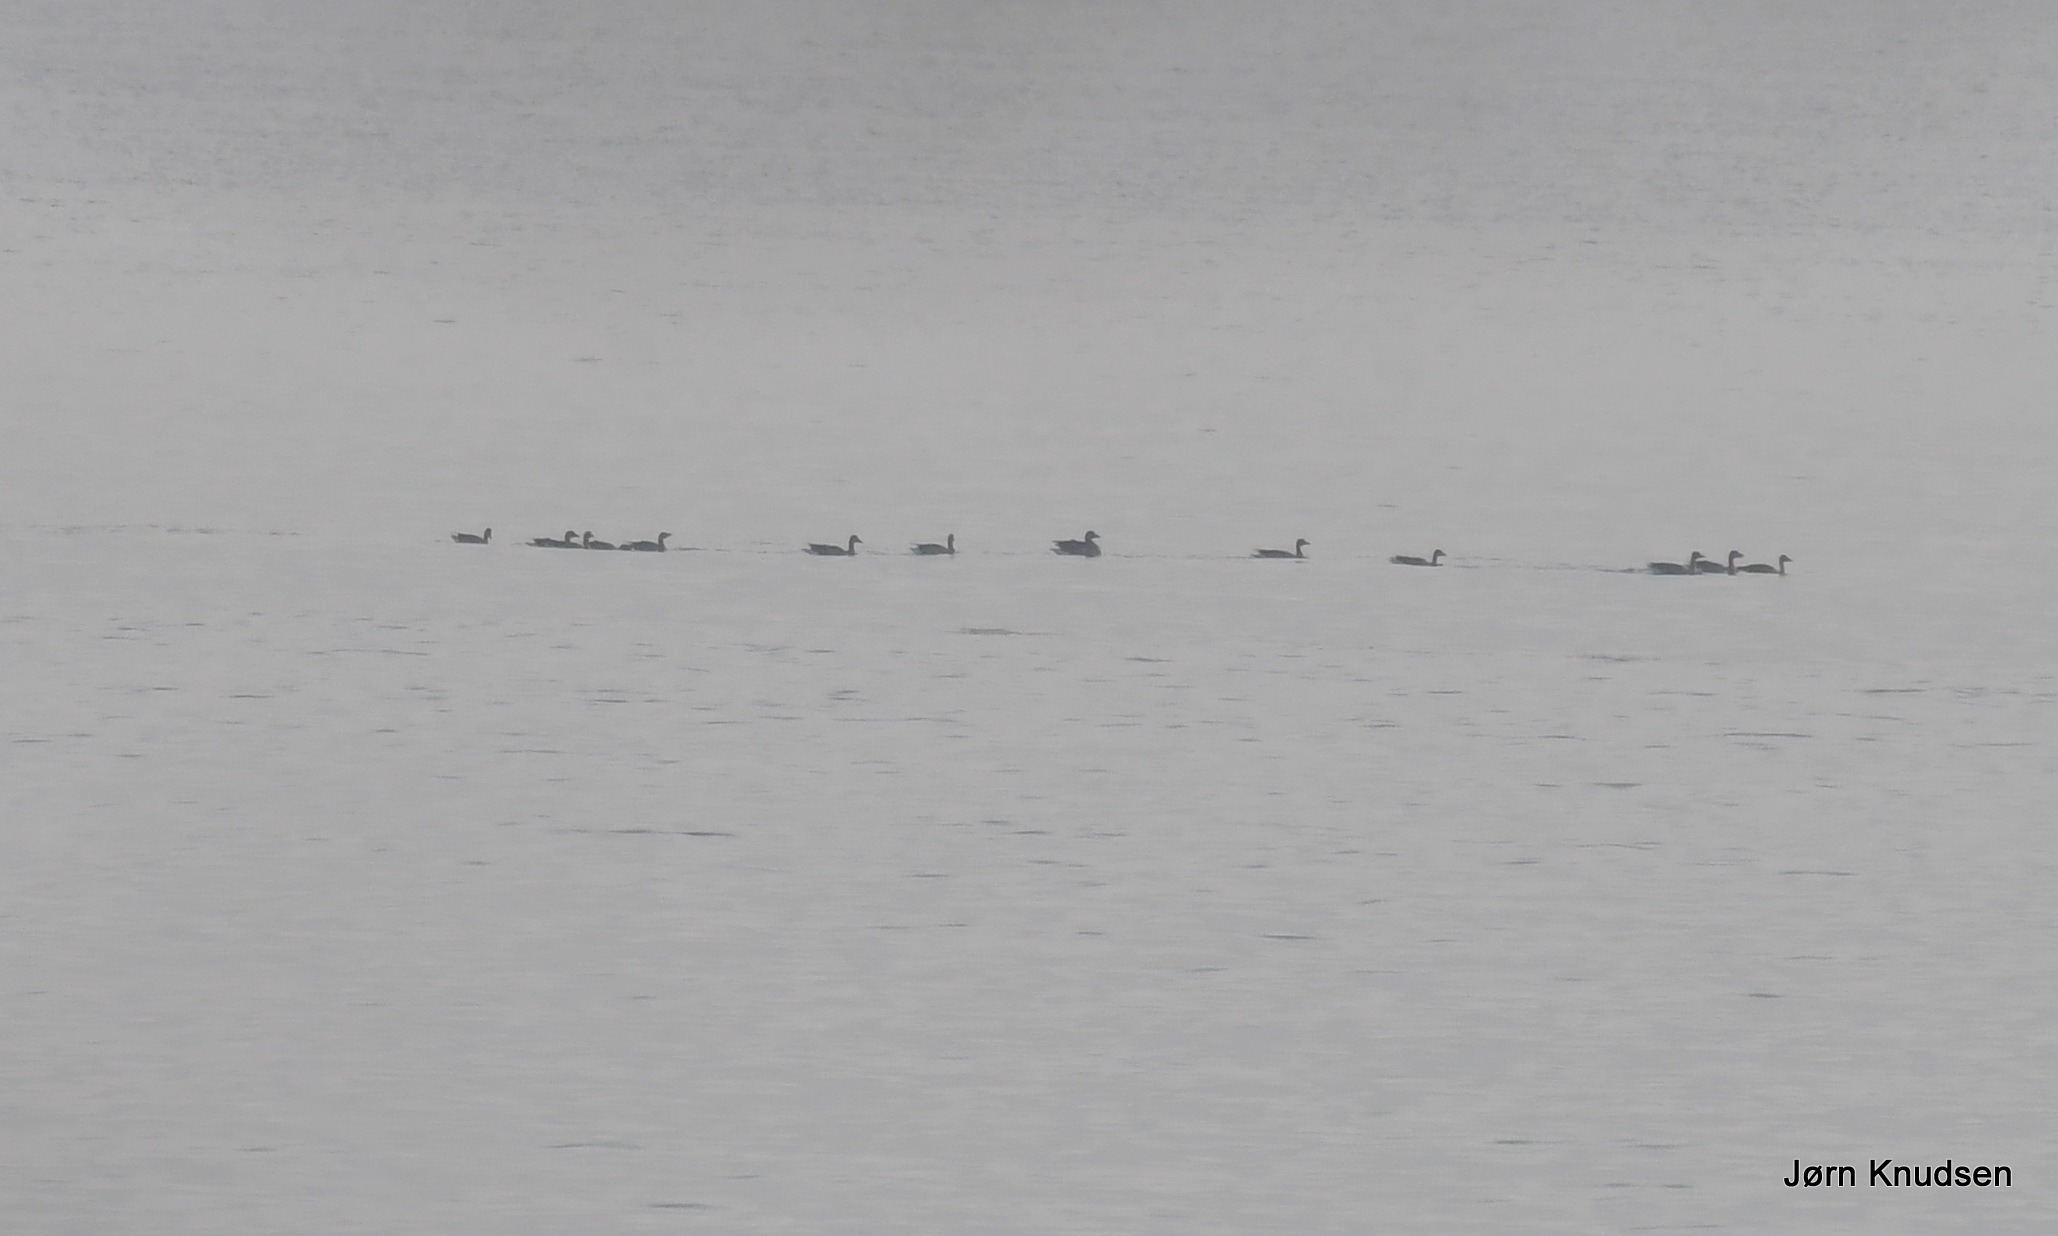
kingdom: Animalia
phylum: Chordata
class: Aves
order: Anseriformes
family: Anatidae
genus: Anser
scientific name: Anser anser
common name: Grågås
